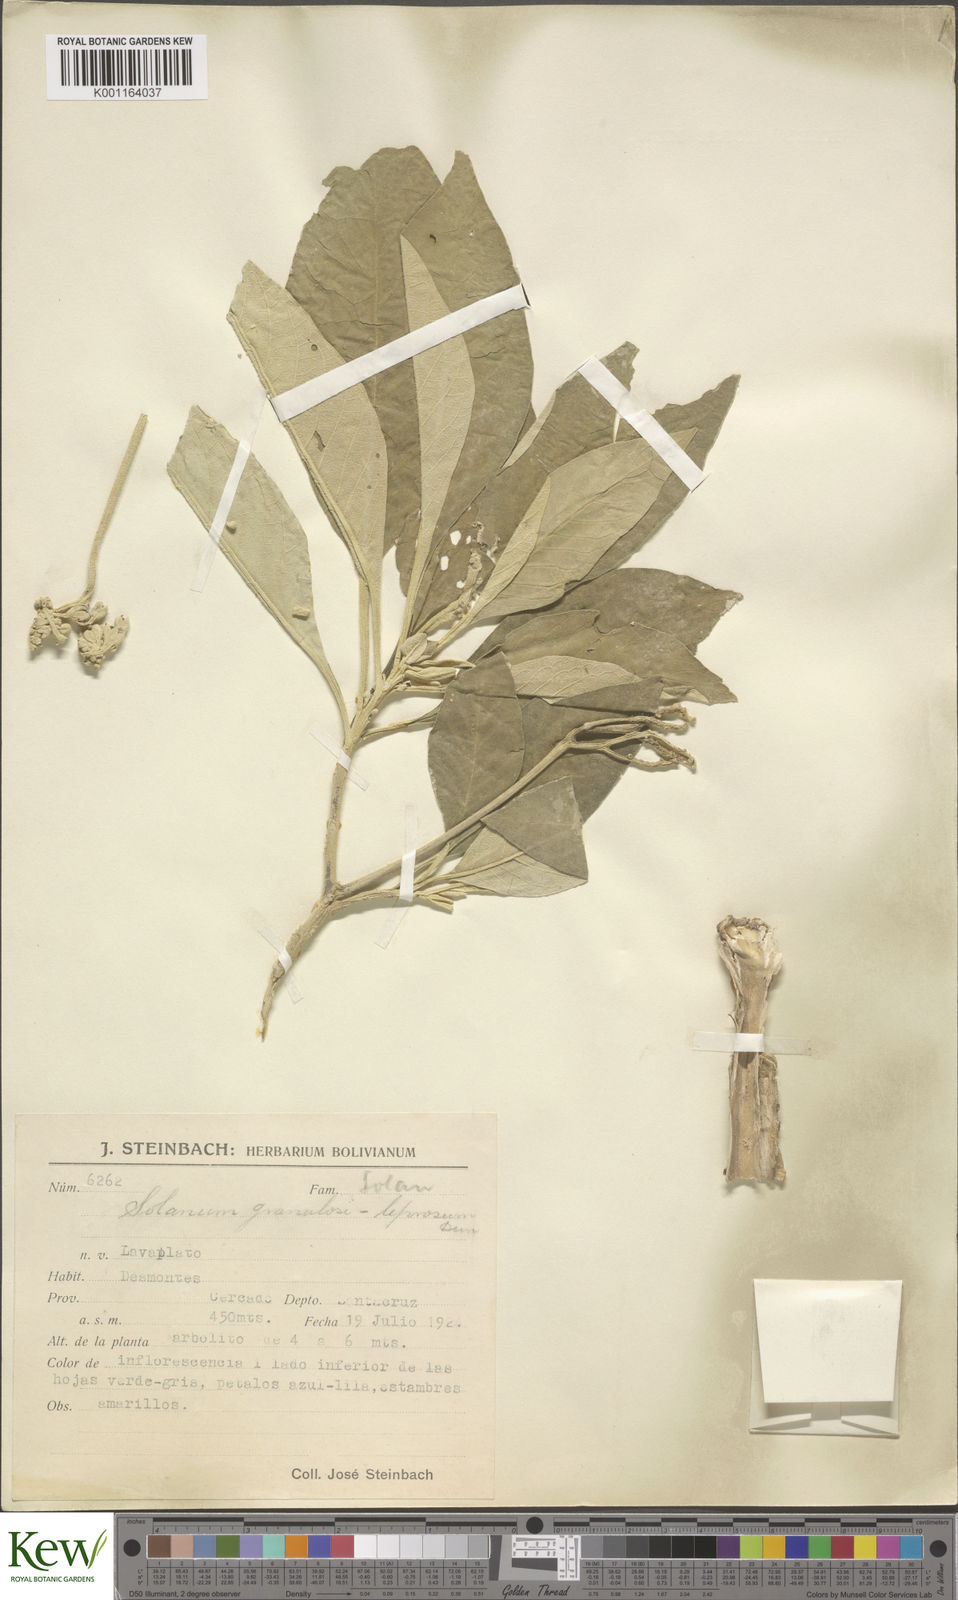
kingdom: Plantae
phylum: Tracheophyta
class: Magnoliopsida
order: Solanales
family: Solanaceae
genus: Solanum
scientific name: Solanum granulosoleprosum
